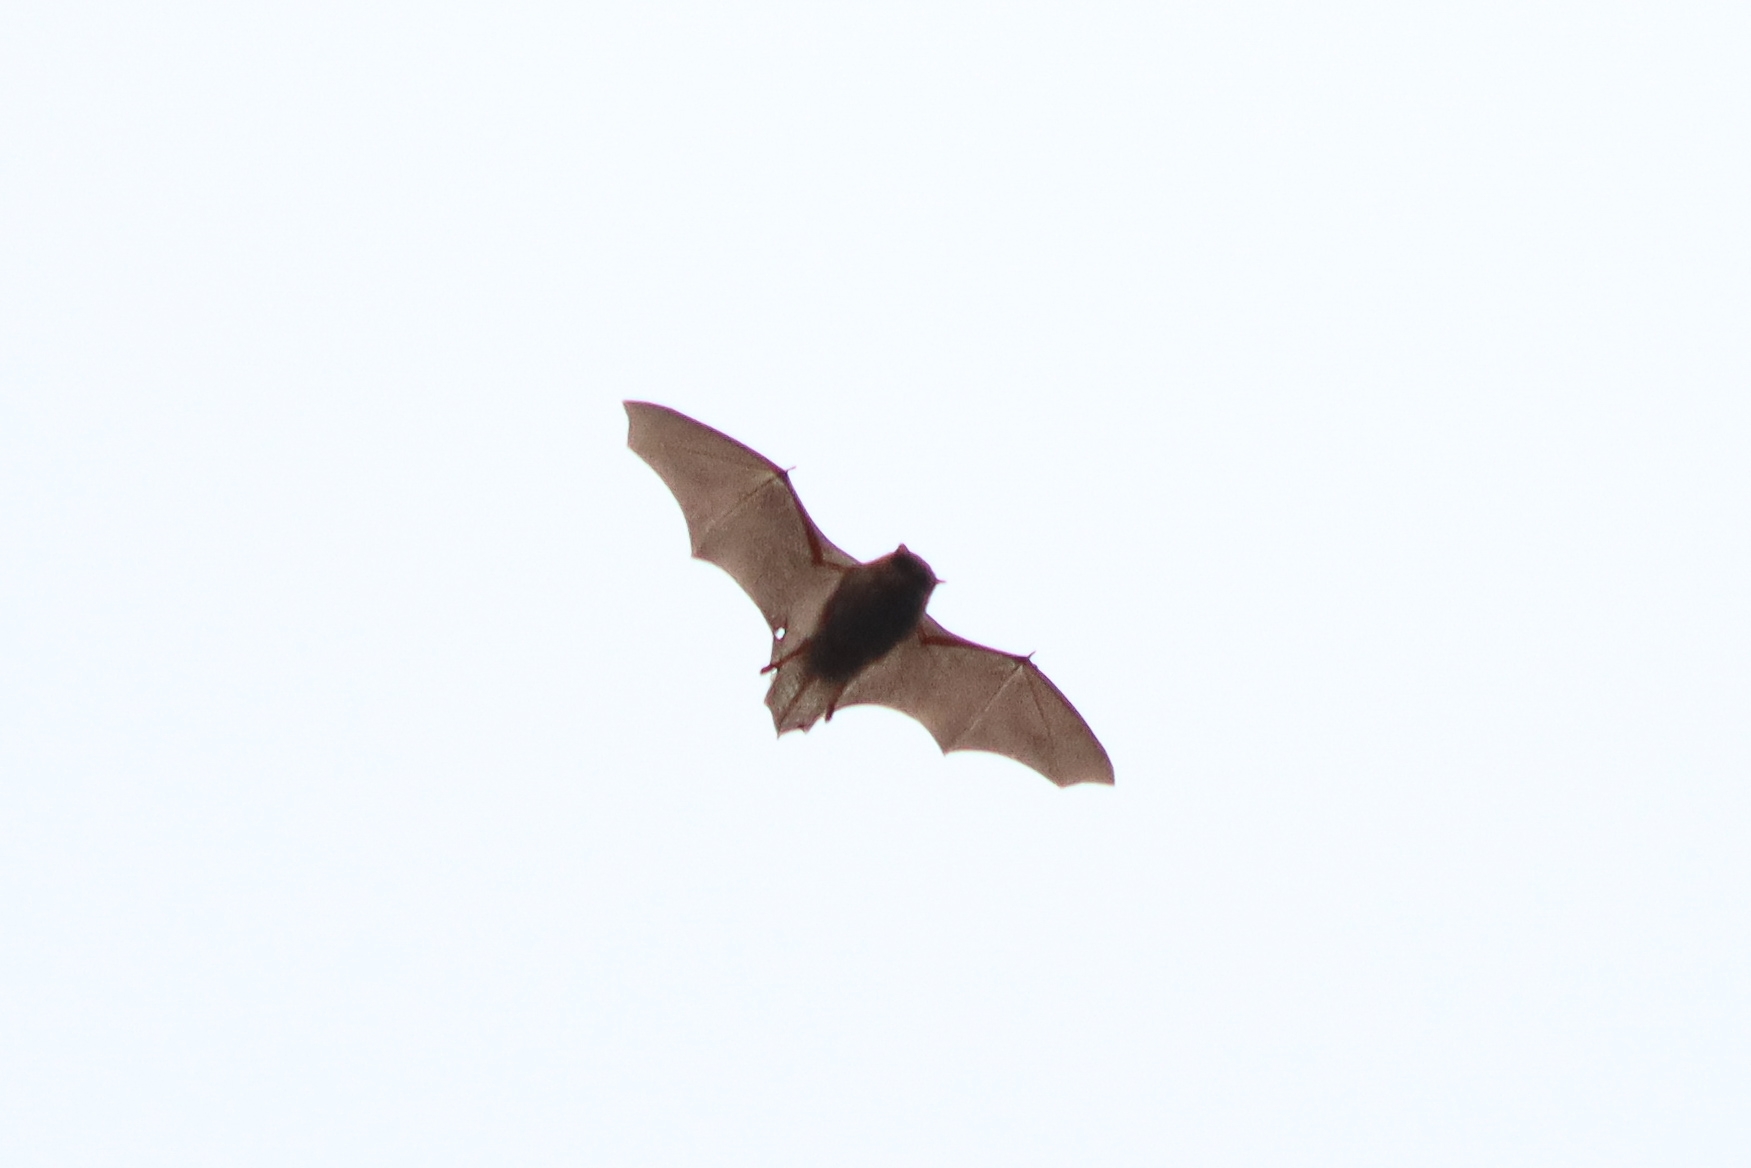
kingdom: Animalia
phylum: Chordata
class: Mammalia
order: Chiroptera
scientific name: Chiroptera
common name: Flagermus
